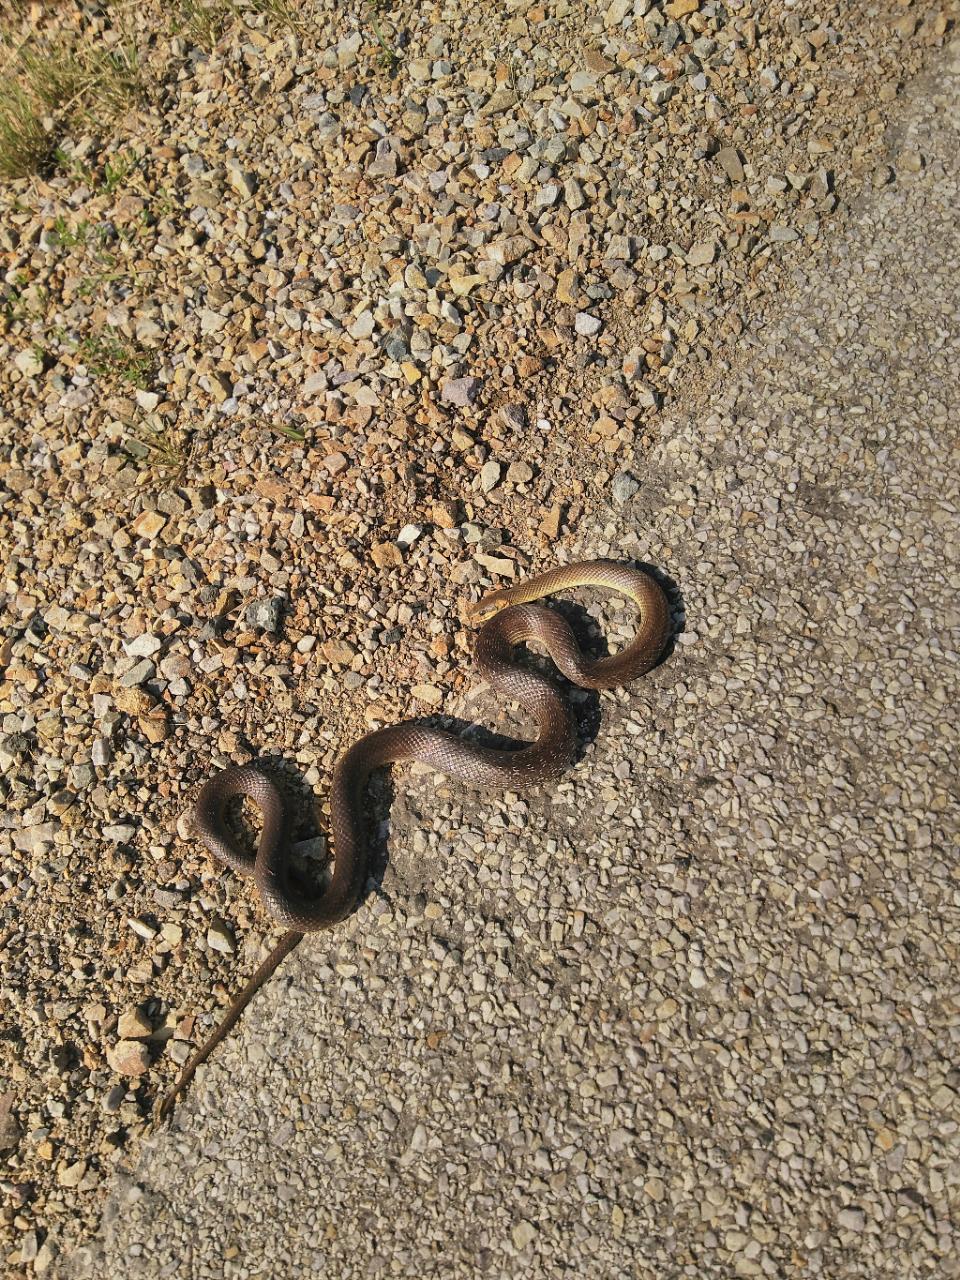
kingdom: Animalia
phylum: Chordata
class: Squamata
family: Colubridae
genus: Zamenis
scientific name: Zamenis longissimus
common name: Aesculapean snake
